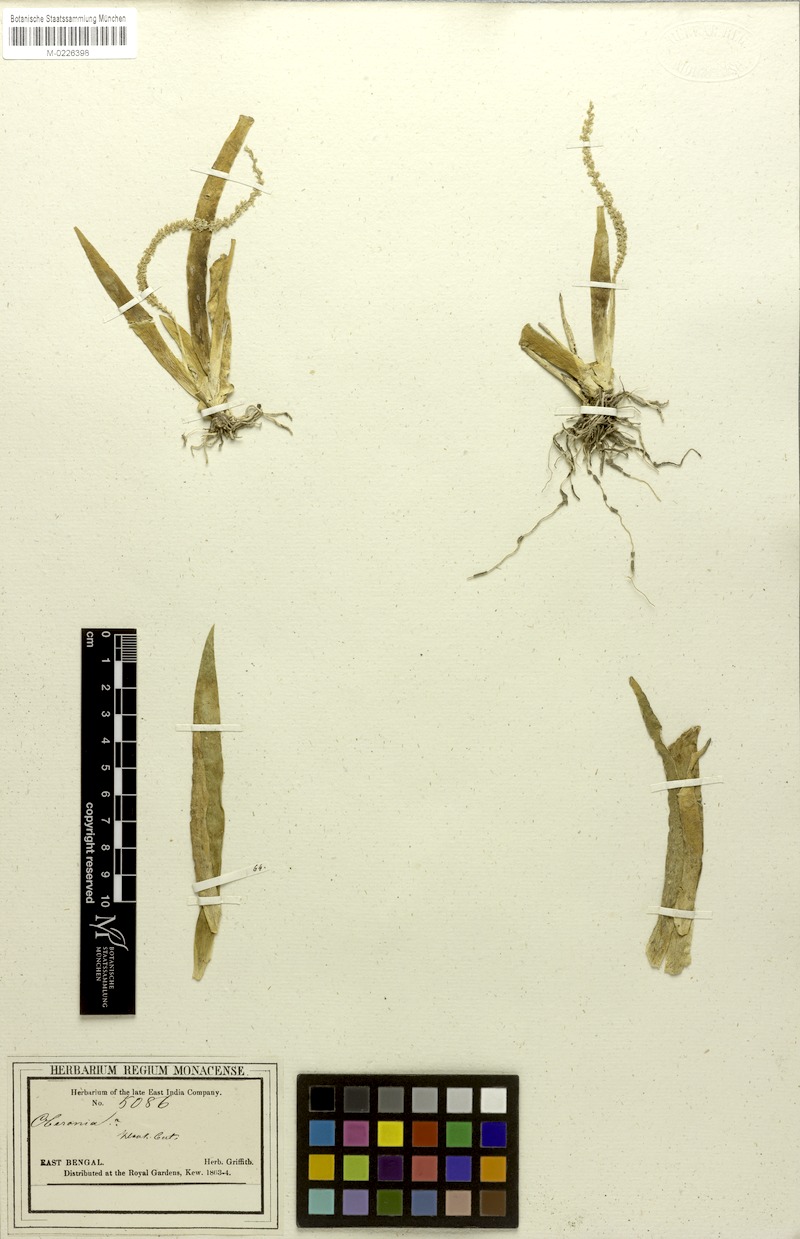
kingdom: Plantae
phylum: Tracheophyta
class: Liliopsida
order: Asparagales
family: Orchidaceae
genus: Oberonia
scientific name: Oberonia wightiana
